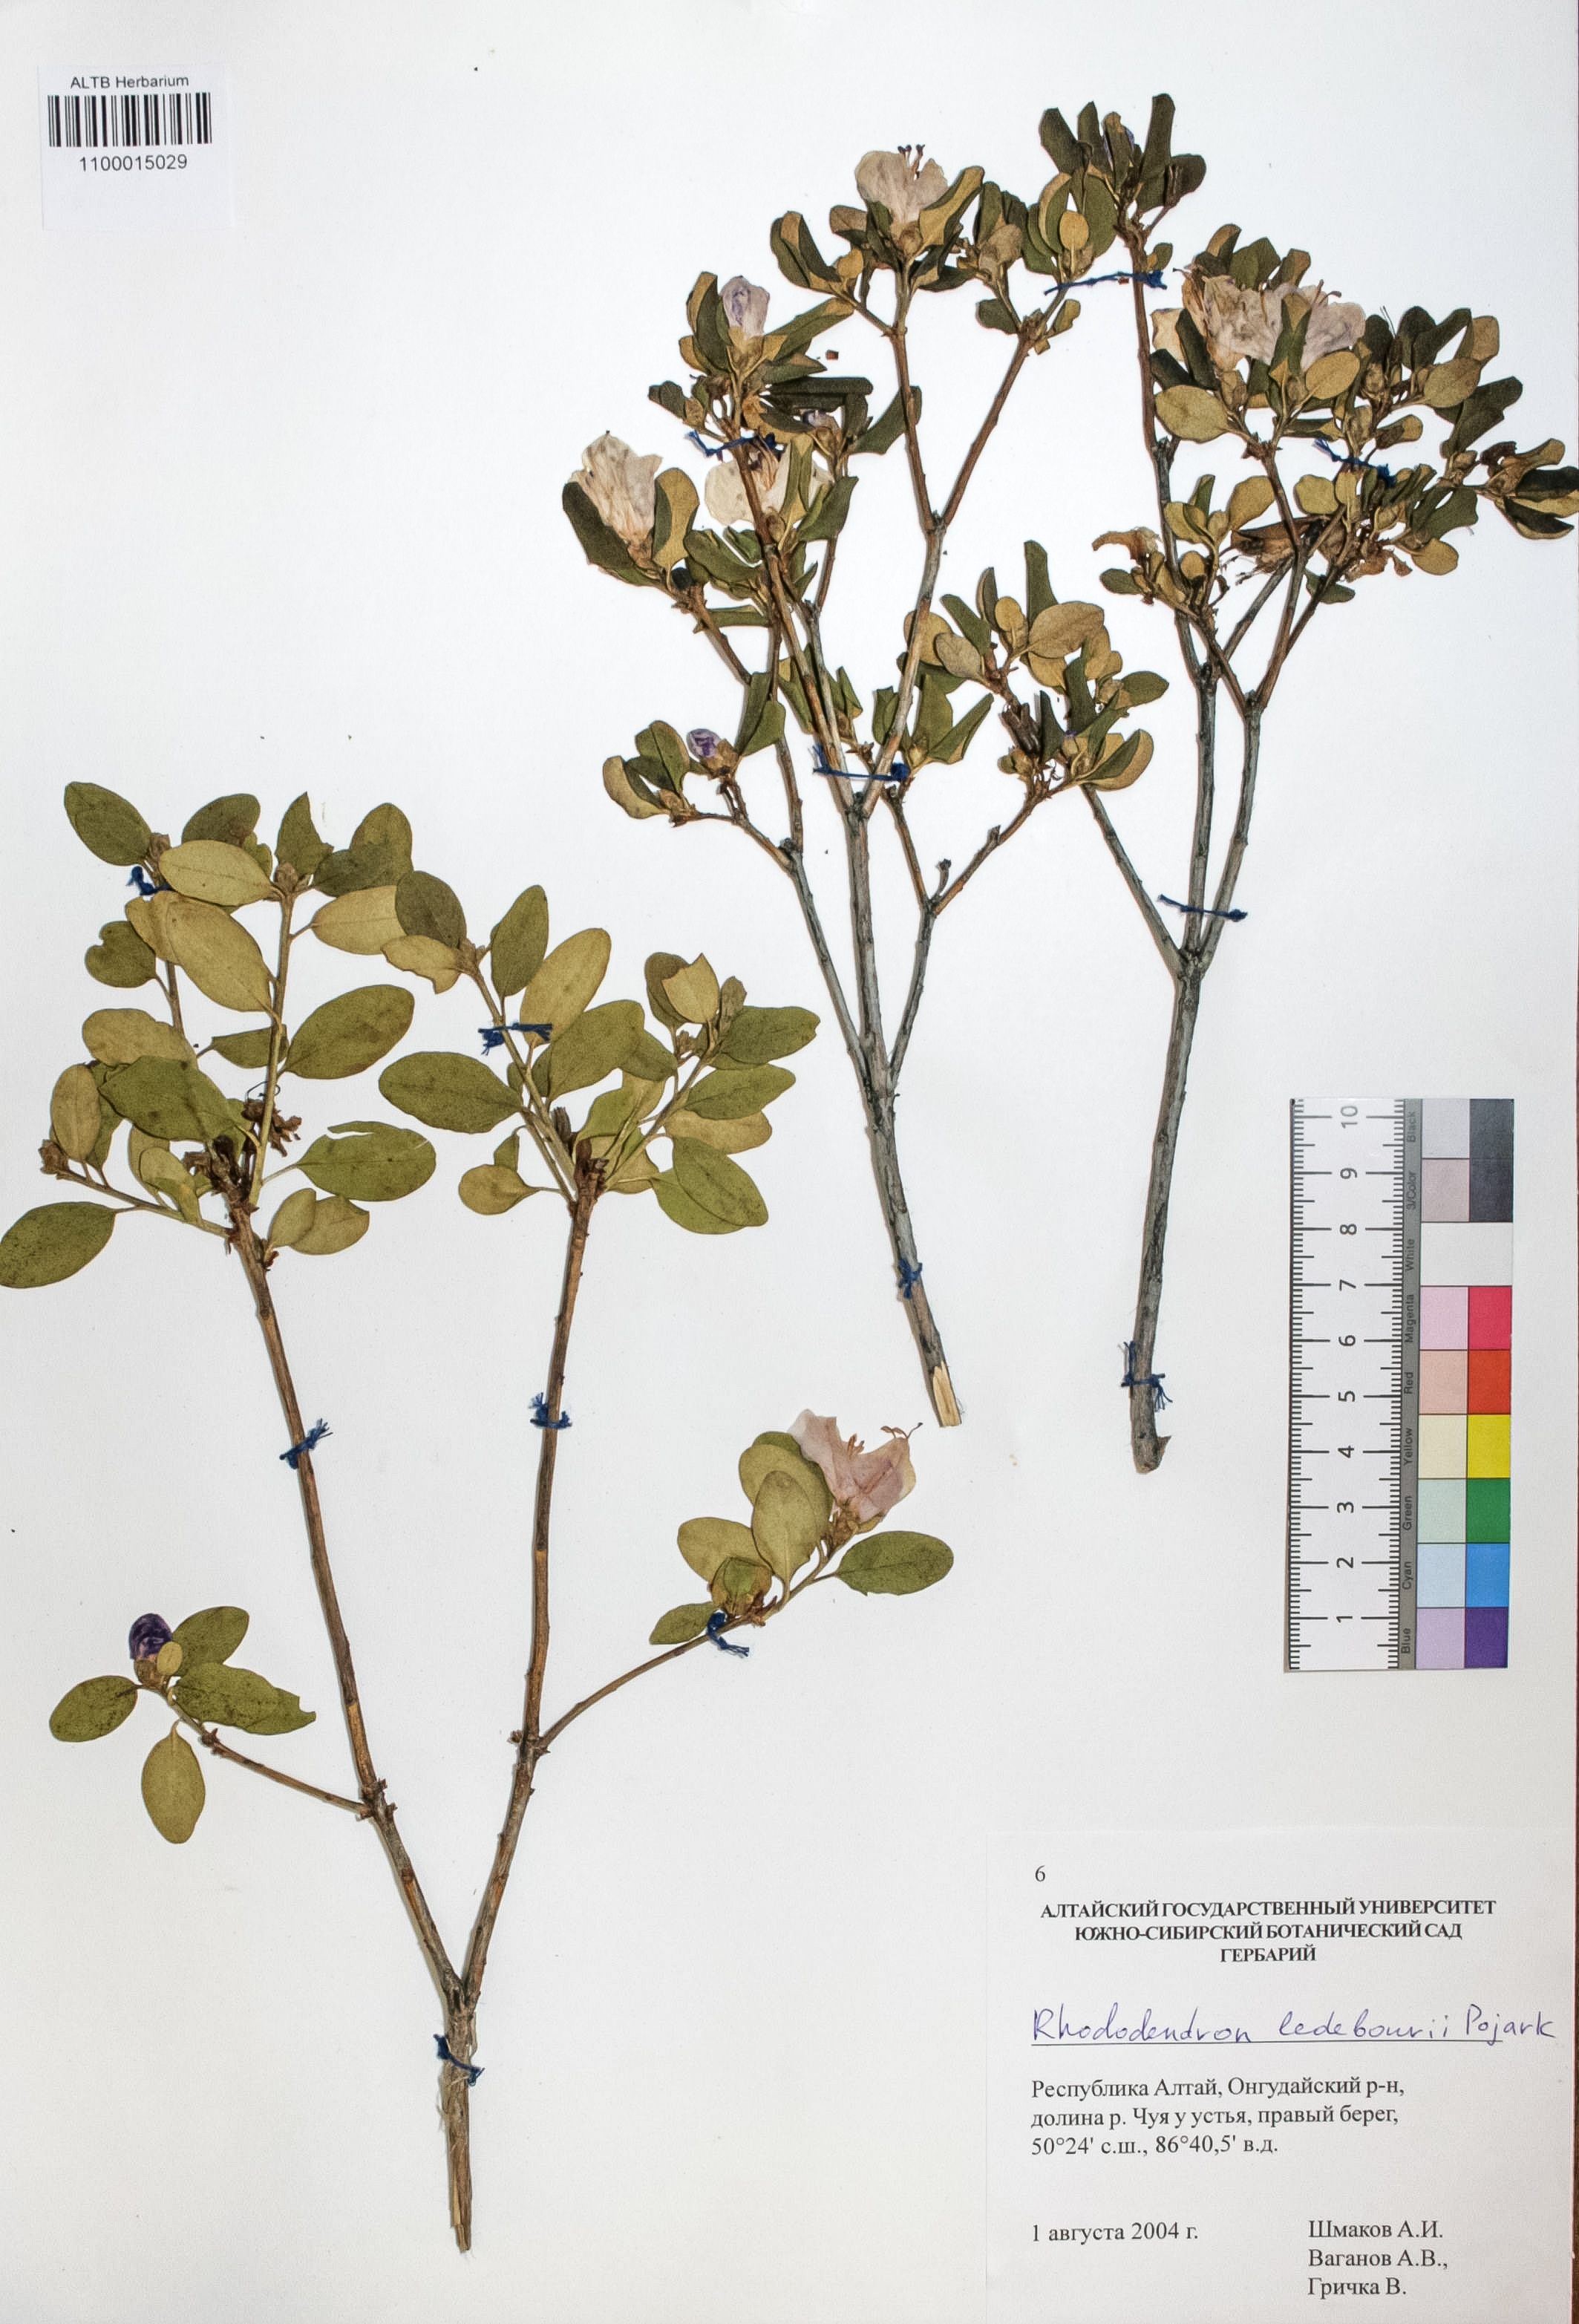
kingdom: Plantae
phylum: Tracheophyta
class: Magnoliopsida
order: Ericales
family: Ericaceae
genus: Rhododendron
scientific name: Rhododendron dauricum
